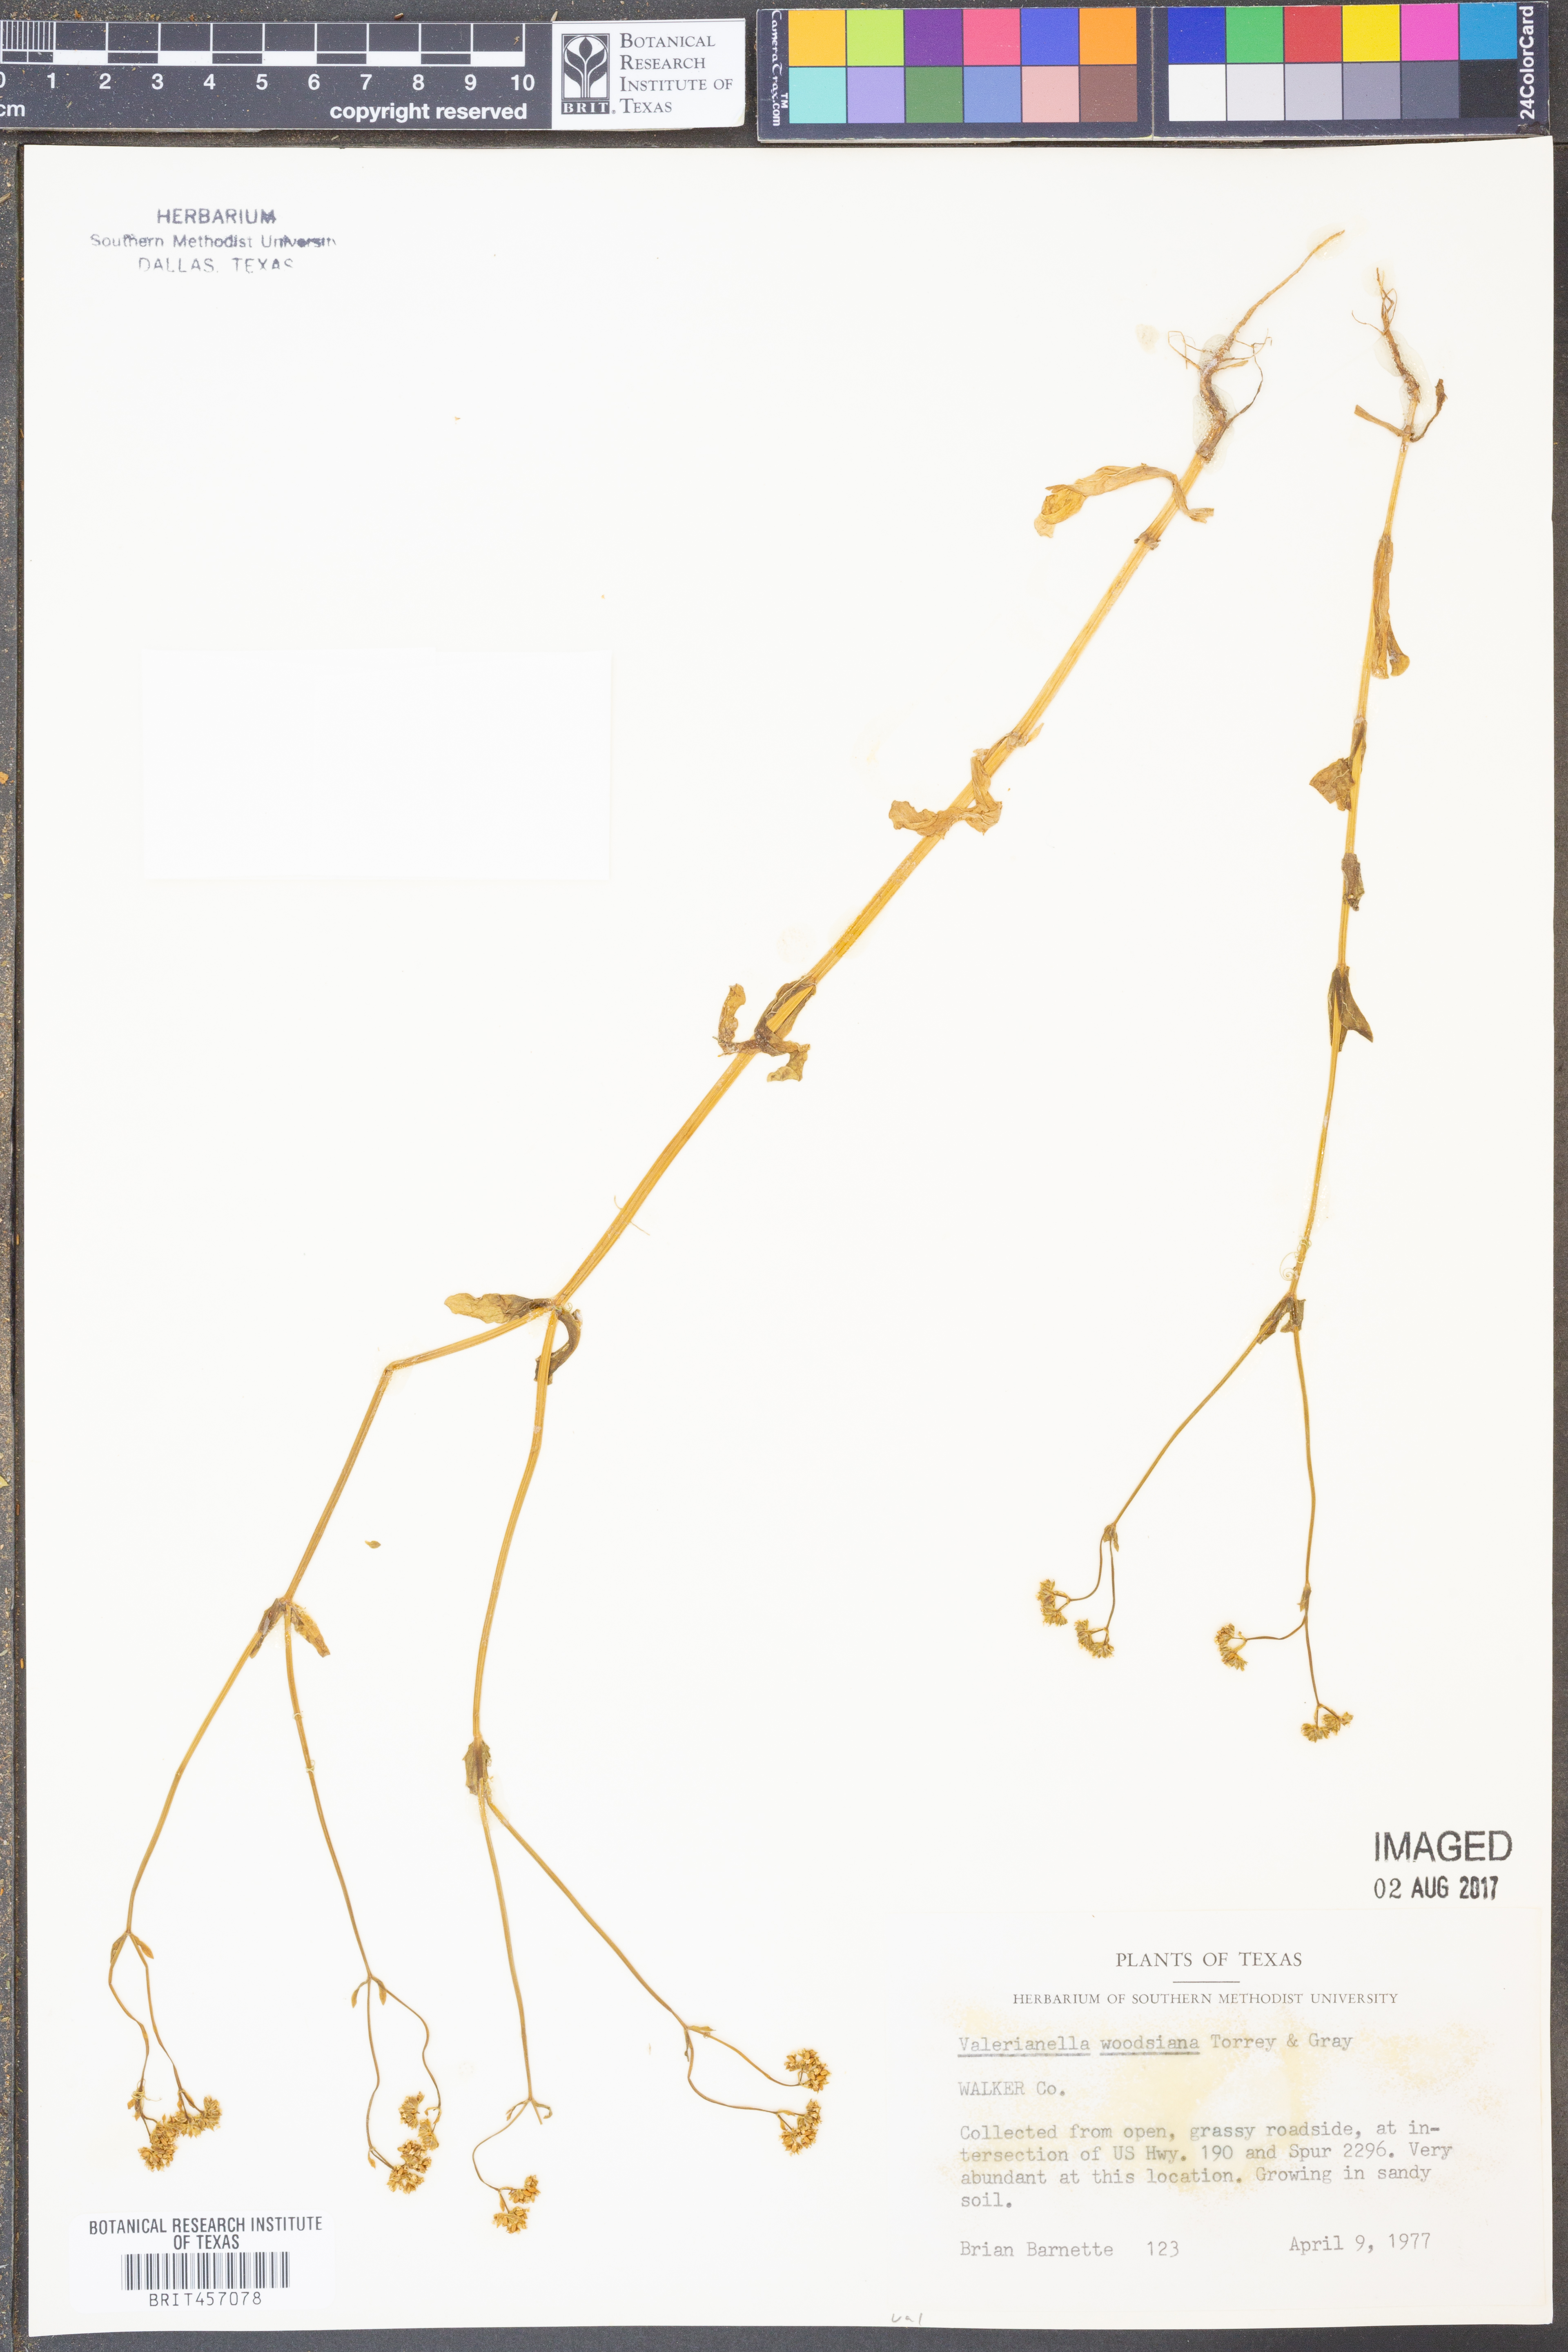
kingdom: Plantae
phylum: Tracheophyta
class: Magnoliopsida
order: Dipsacales
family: Caprifoliaceae
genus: Valerianella
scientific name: Valerianella radiata
